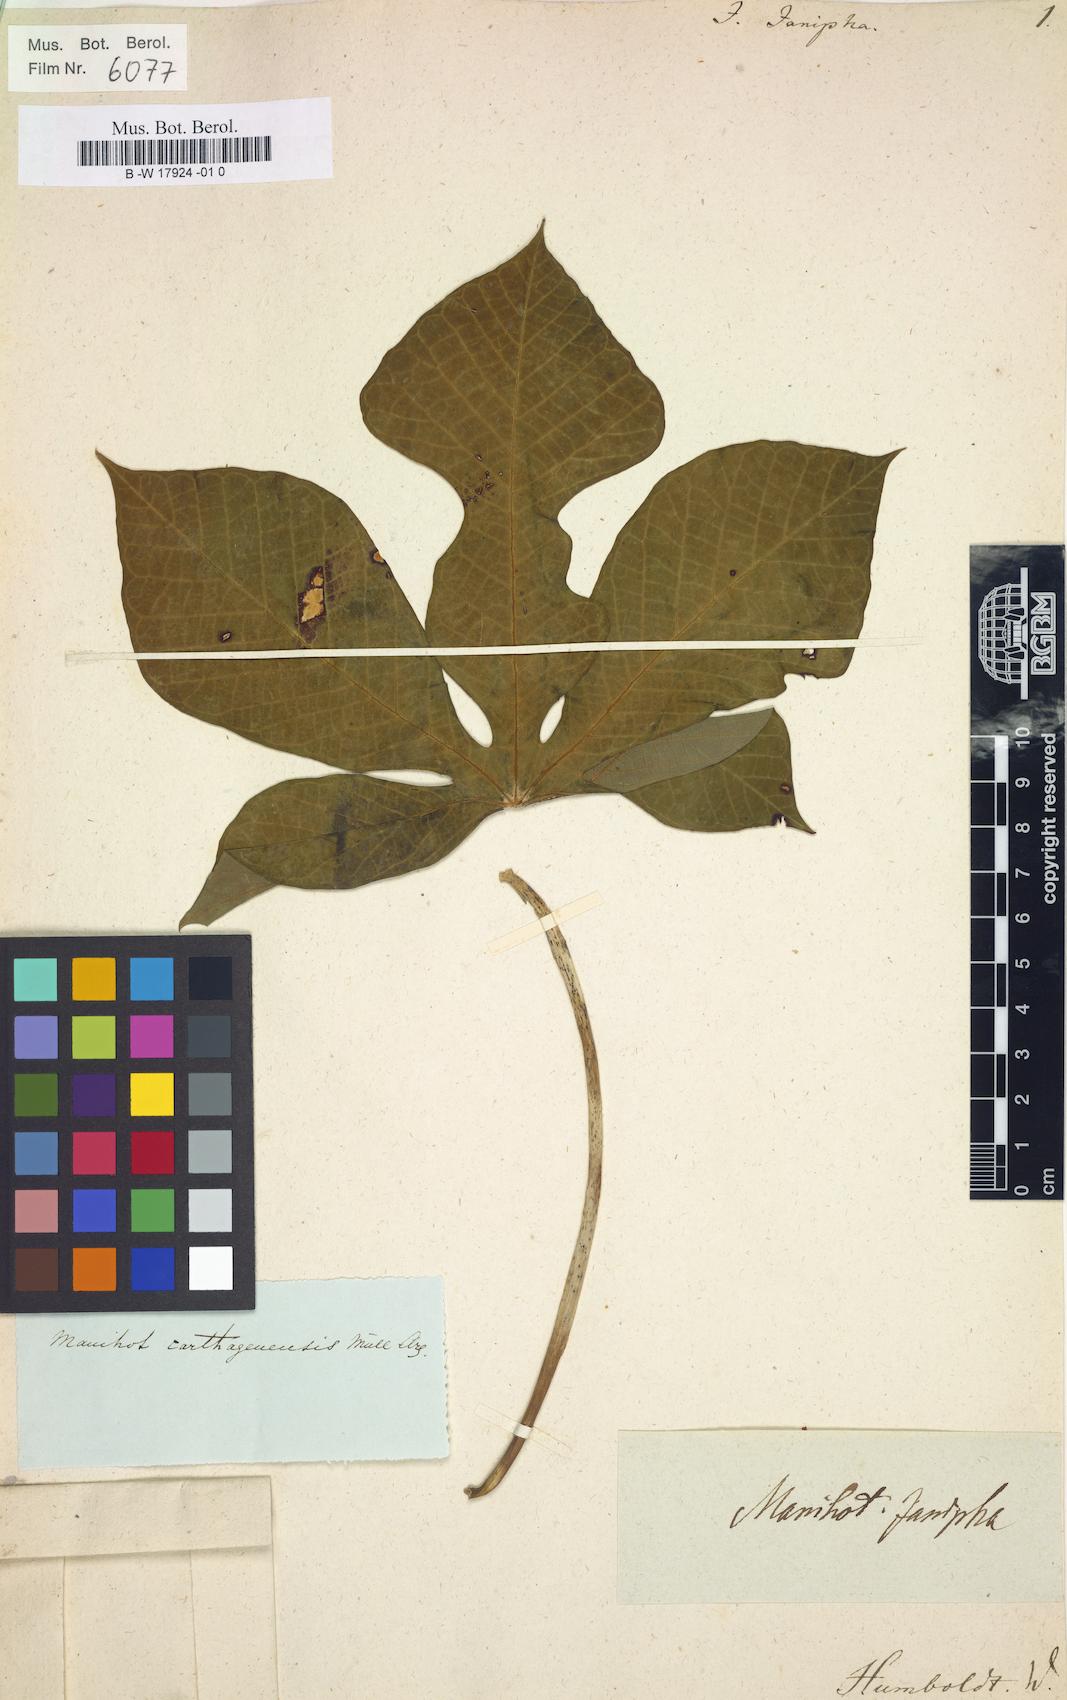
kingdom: Plantae
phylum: Tracheophyta
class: Magnoliopsida
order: Malpighiales
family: Euphorbiaceae
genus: Manihot
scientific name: Manihot carthagenensis
